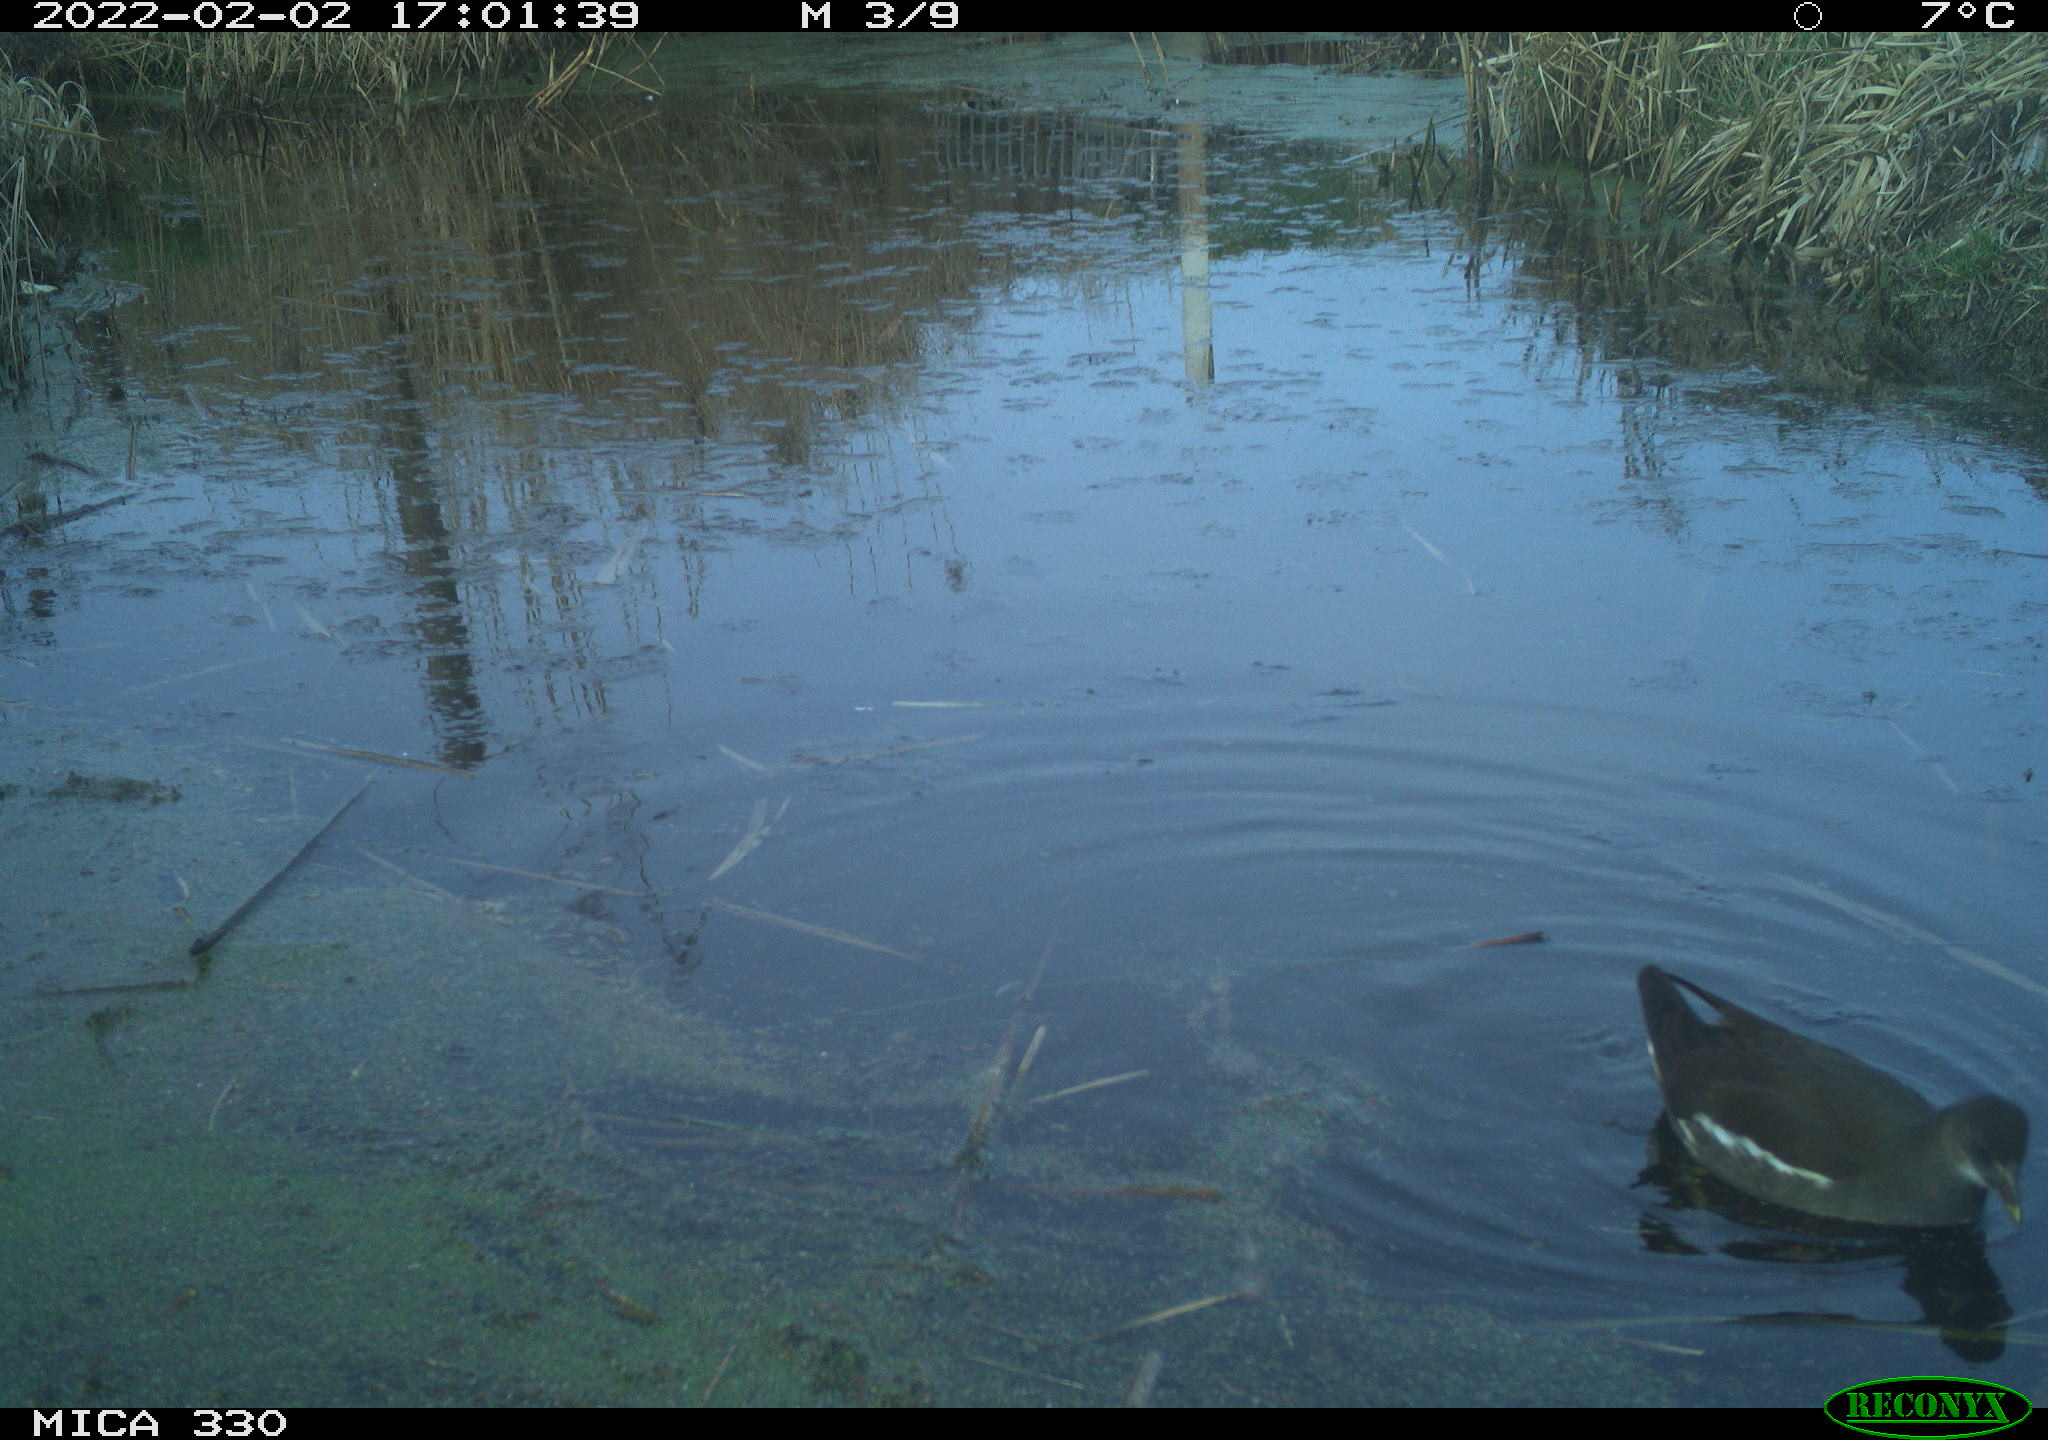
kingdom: Animalia
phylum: Chordata
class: Aves
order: Gruiformes
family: Rallidae
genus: Gallinula
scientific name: Gallinula chloropus
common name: Common moorhen
